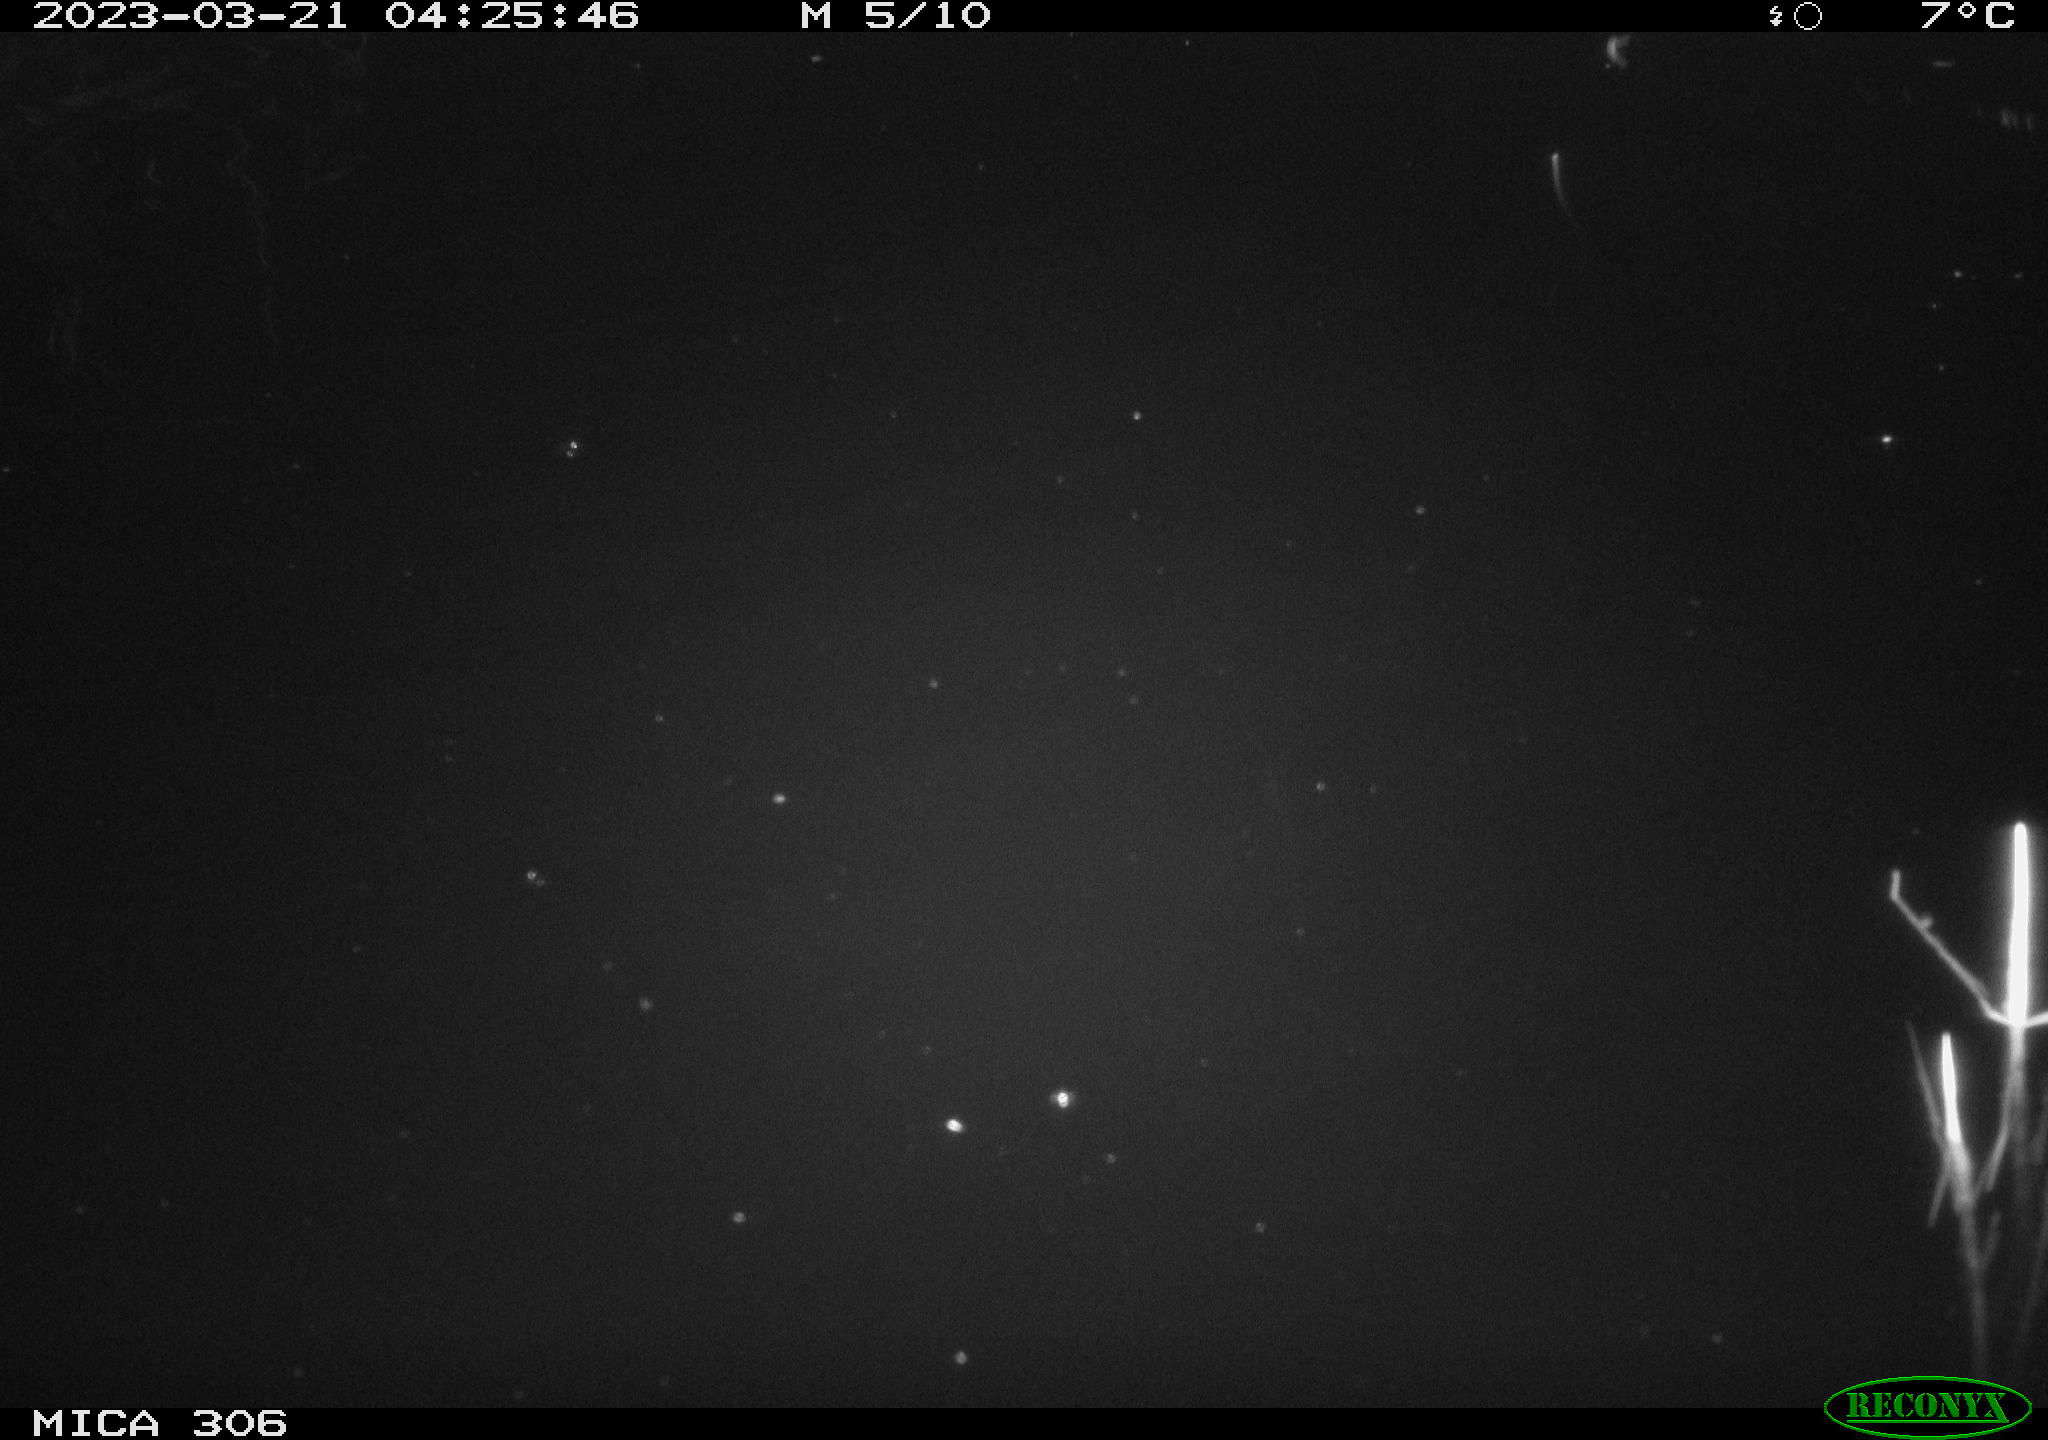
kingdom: Animalia
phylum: Chordata
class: Mammalia
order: Rodentia
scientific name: Rodentia
